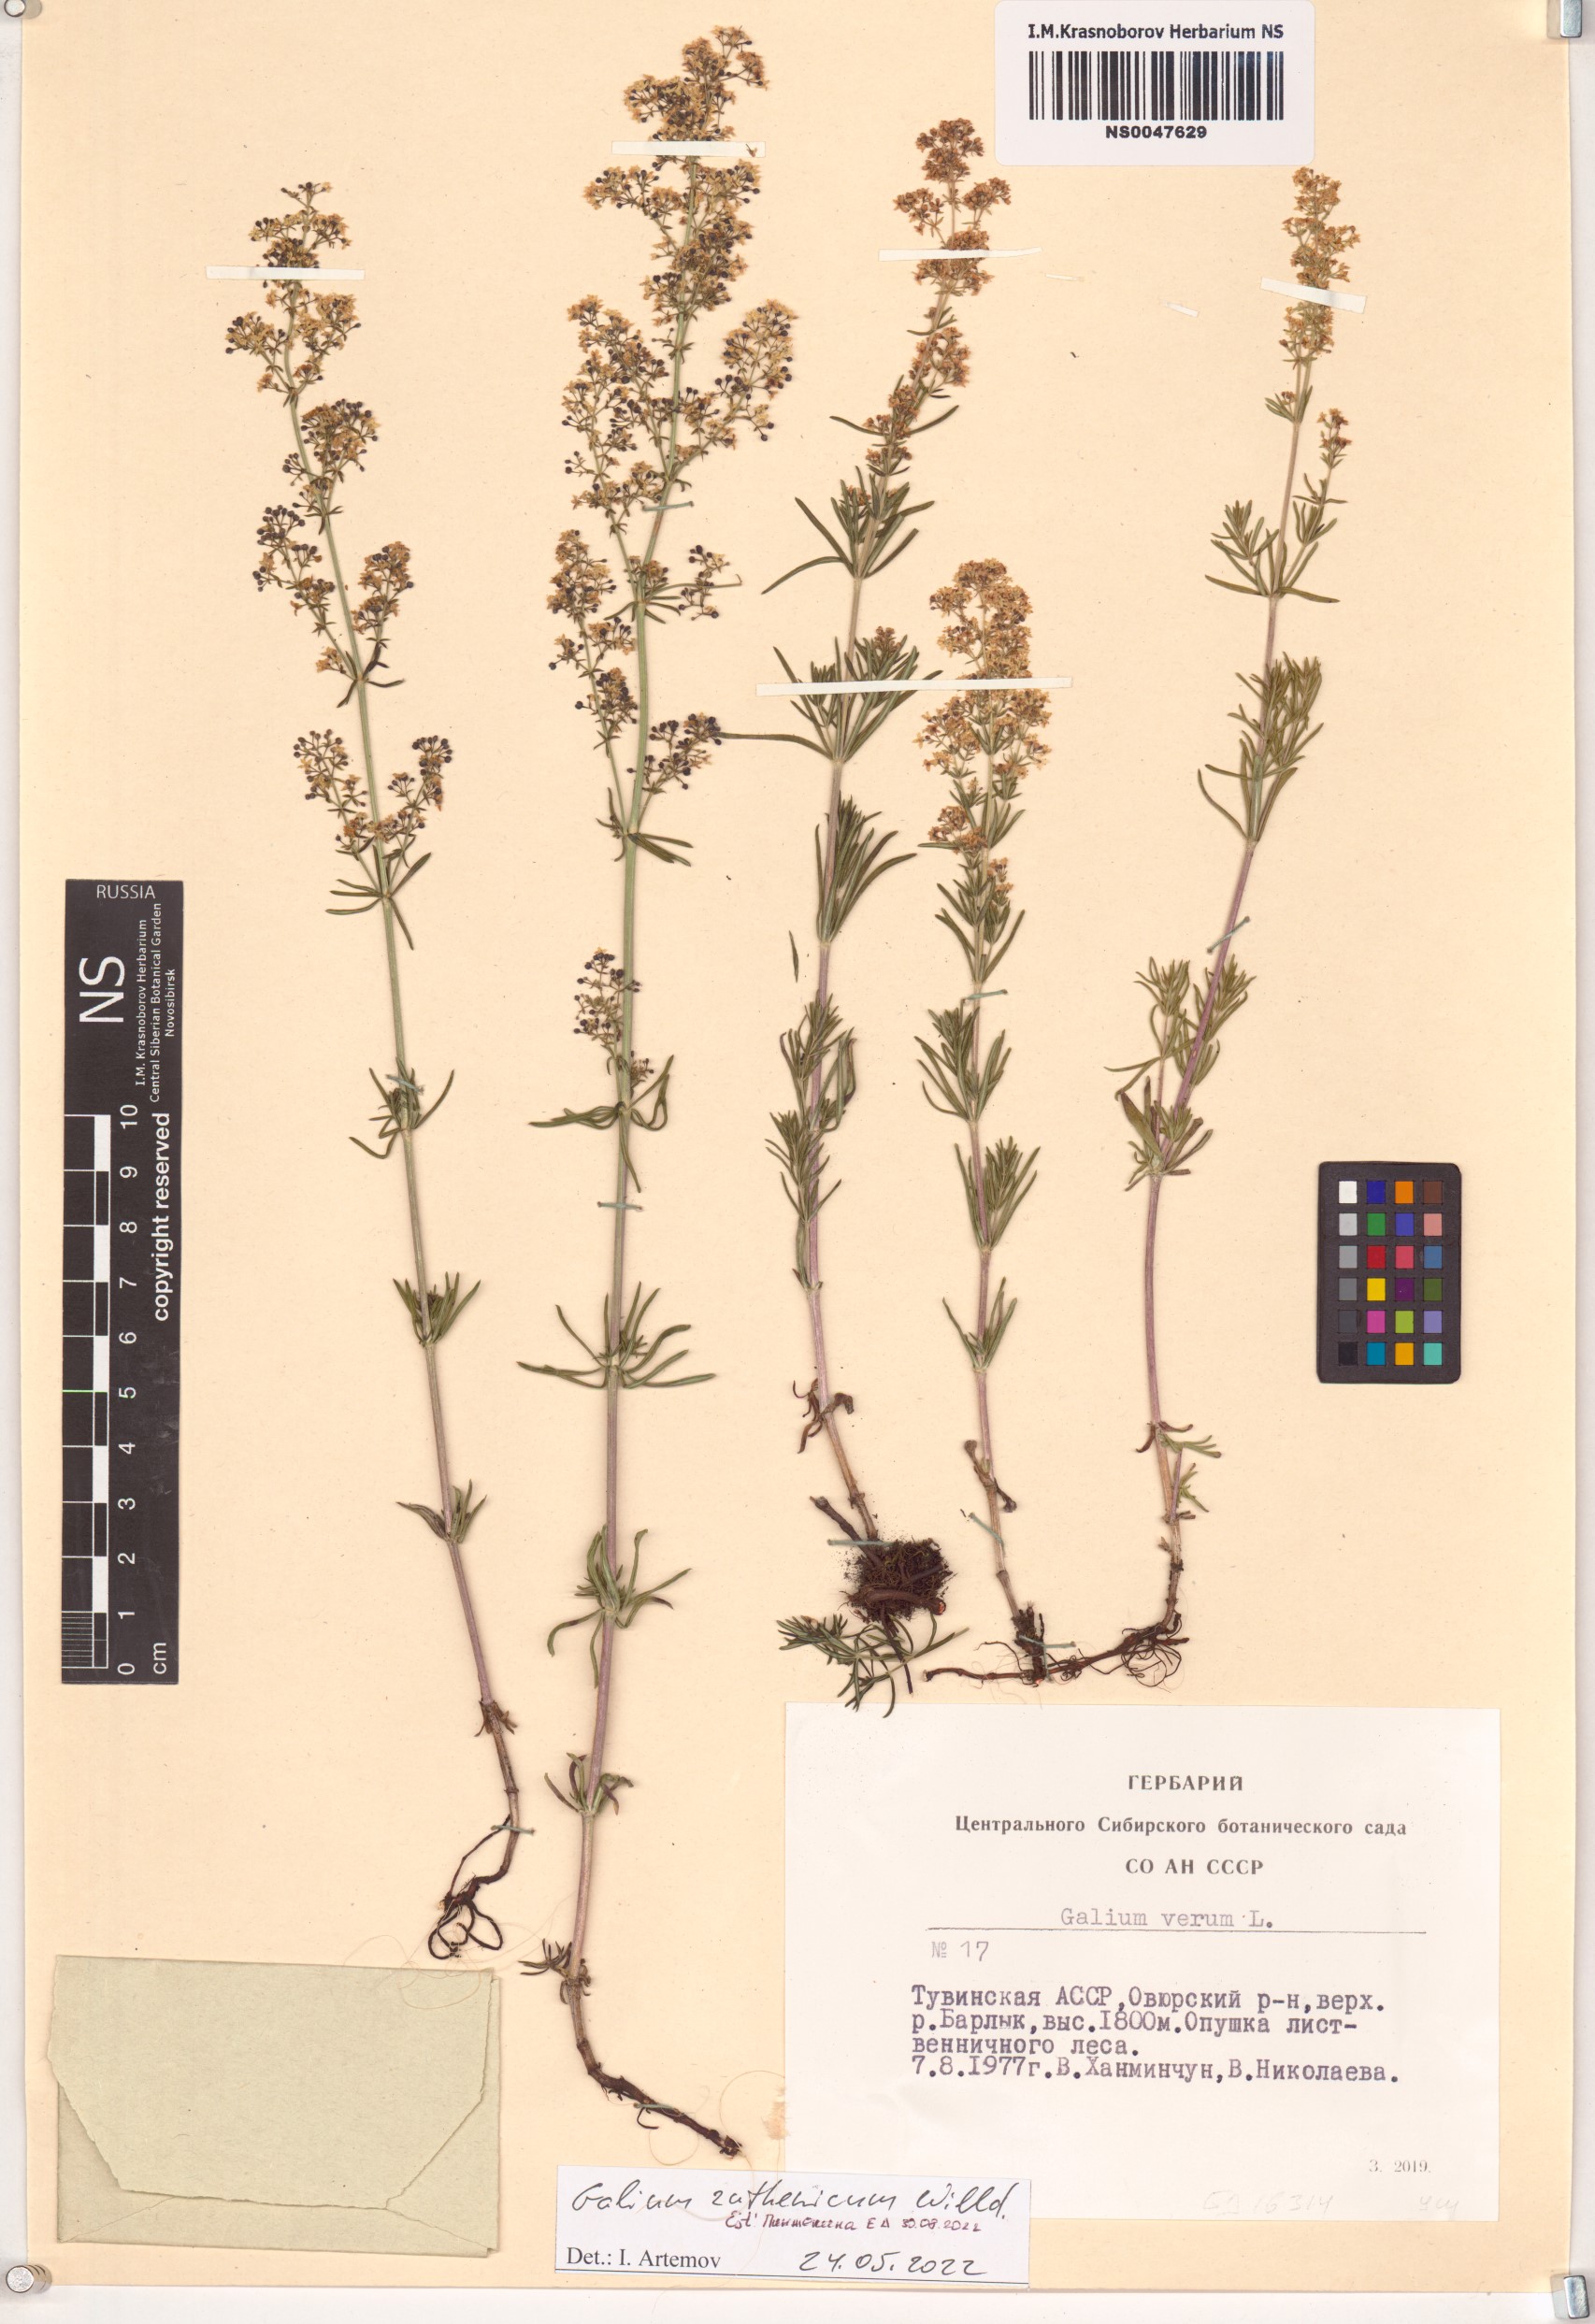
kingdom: Plantae
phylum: Tracheophyta
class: Magnoliopsida
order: Gentianales
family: Rubiaceae
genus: Galium
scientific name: Galium verum
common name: Lady's bedstraw
